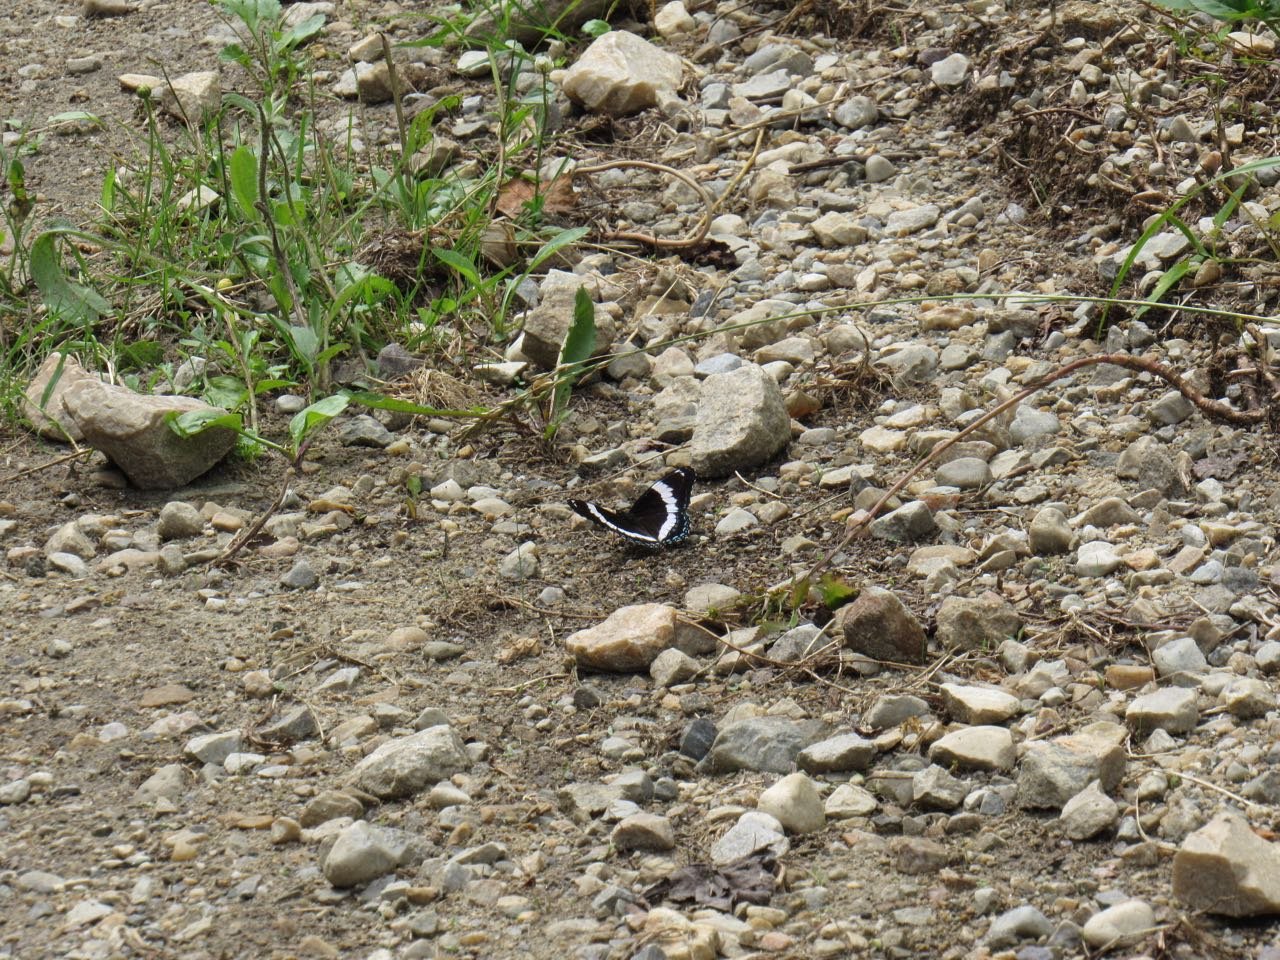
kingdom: Animalia
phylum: Arthropoda
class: Insecta
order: Lepidoptera
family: Nymphalidae
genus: Limenitis
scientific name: Limenitis arthemis
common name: Red-spotted Admiral
